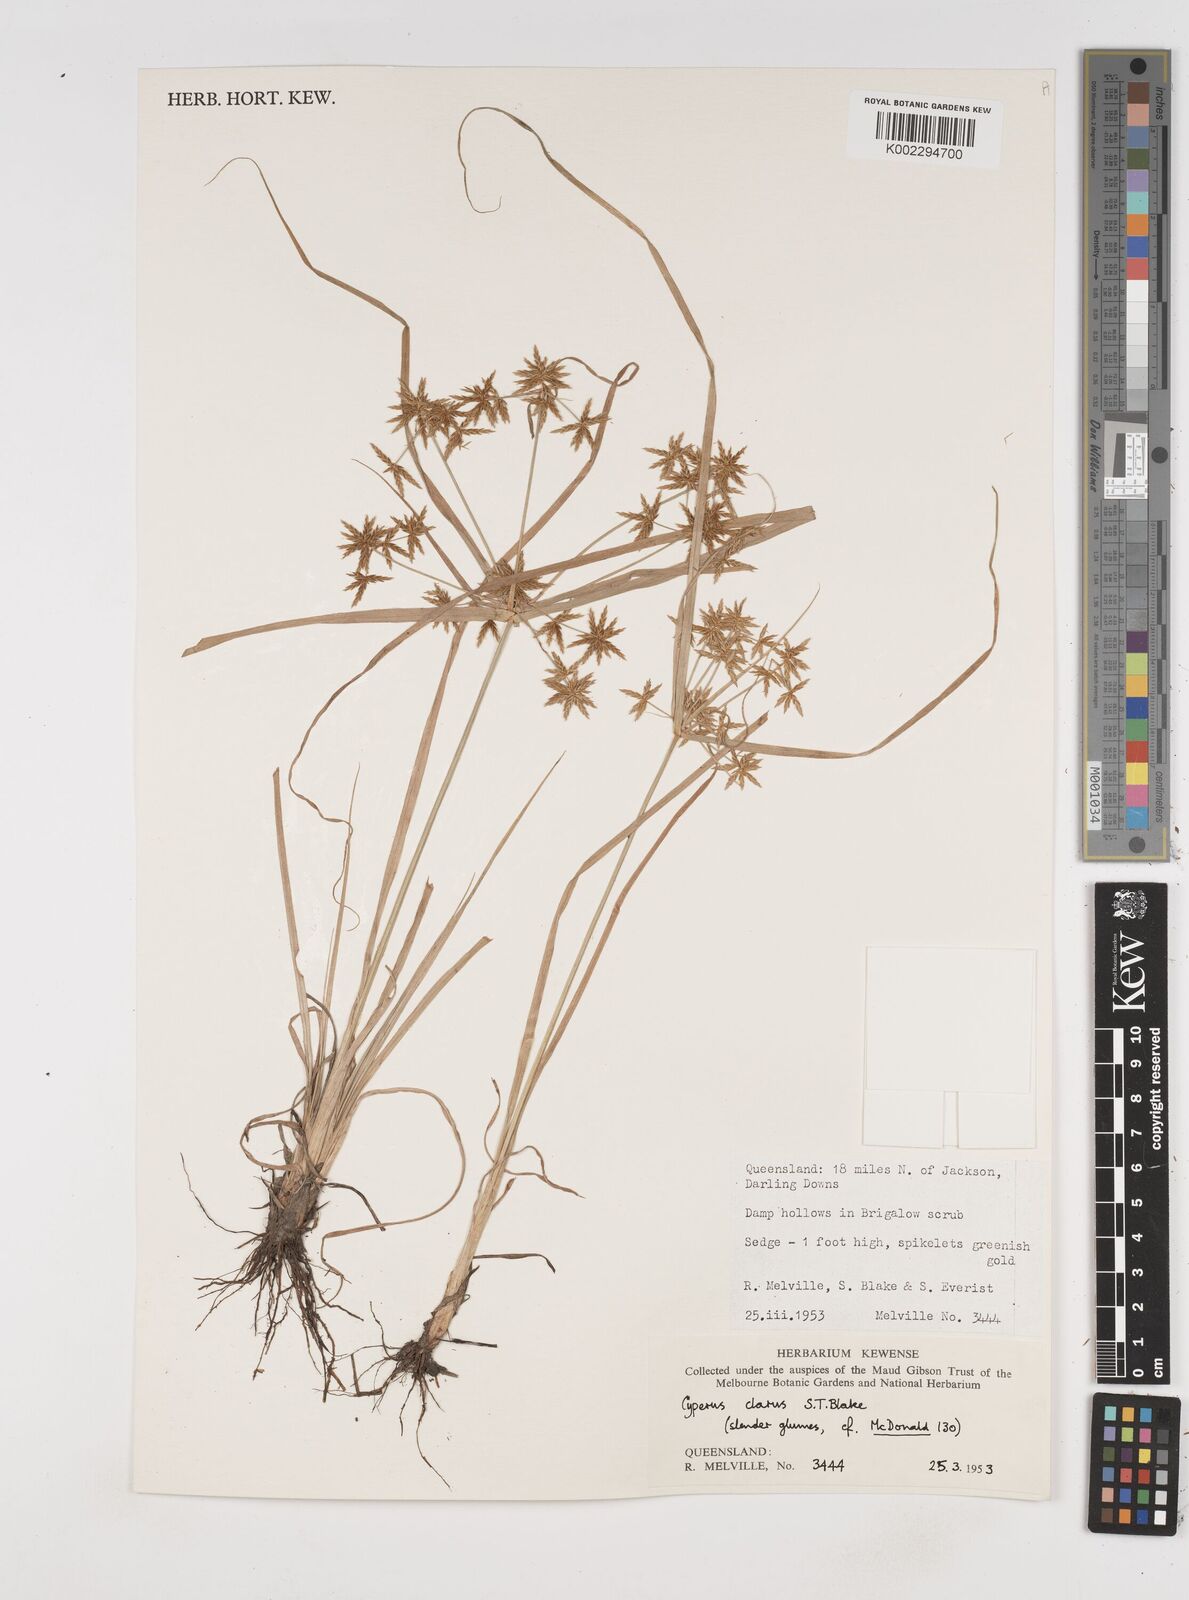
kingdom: Plantae
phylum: Tracheophyta
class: Liliopsida
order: Poales
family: Cyperaceae
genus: Cyperus
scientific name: Cyperus clarus
